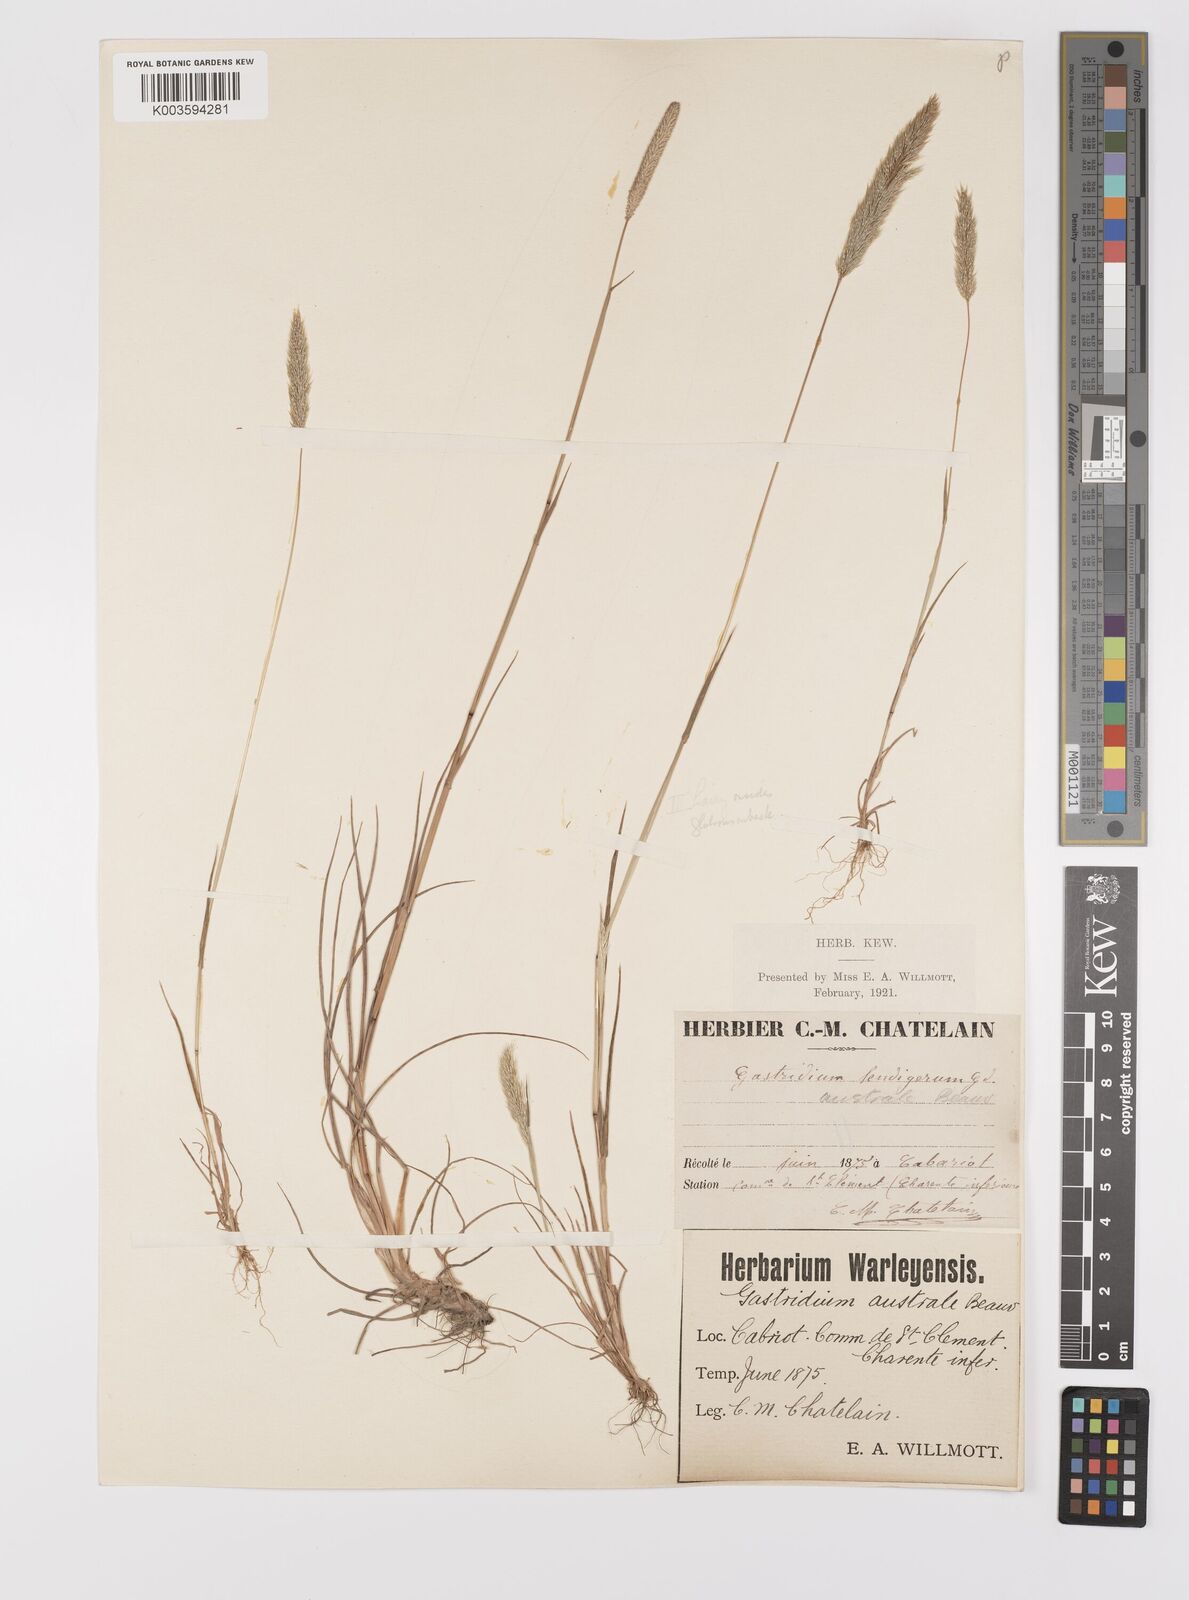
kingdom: Plantae
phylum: Tracheophyta
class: Liliopsida
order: Poales
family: Poaceae
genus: Gastridium
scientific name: Gastridium ventricosum
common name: Nit-grass
